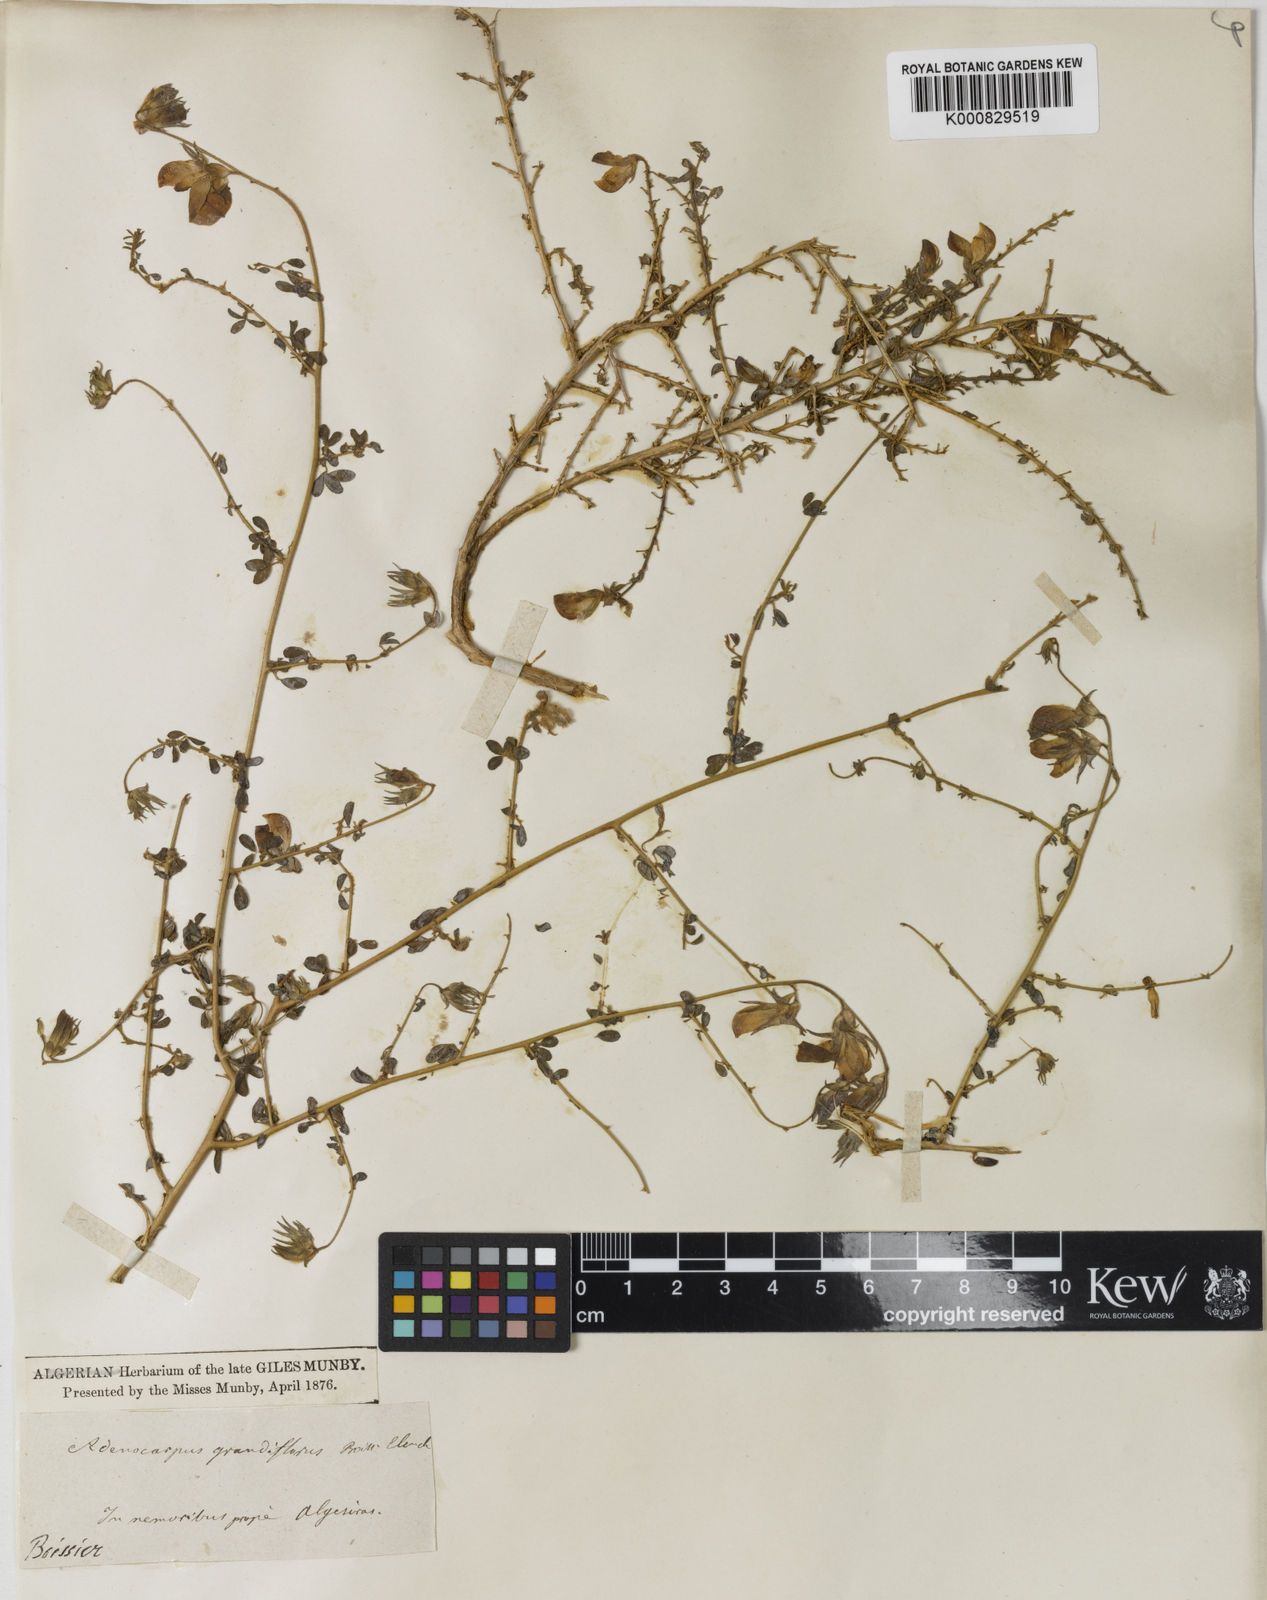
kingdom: Plantae
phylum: Tracheophyta
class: Magnoliopsida
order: Fabales
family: Fabaceae
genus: Adenocarpus
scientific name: Adenocarpus telonensis
